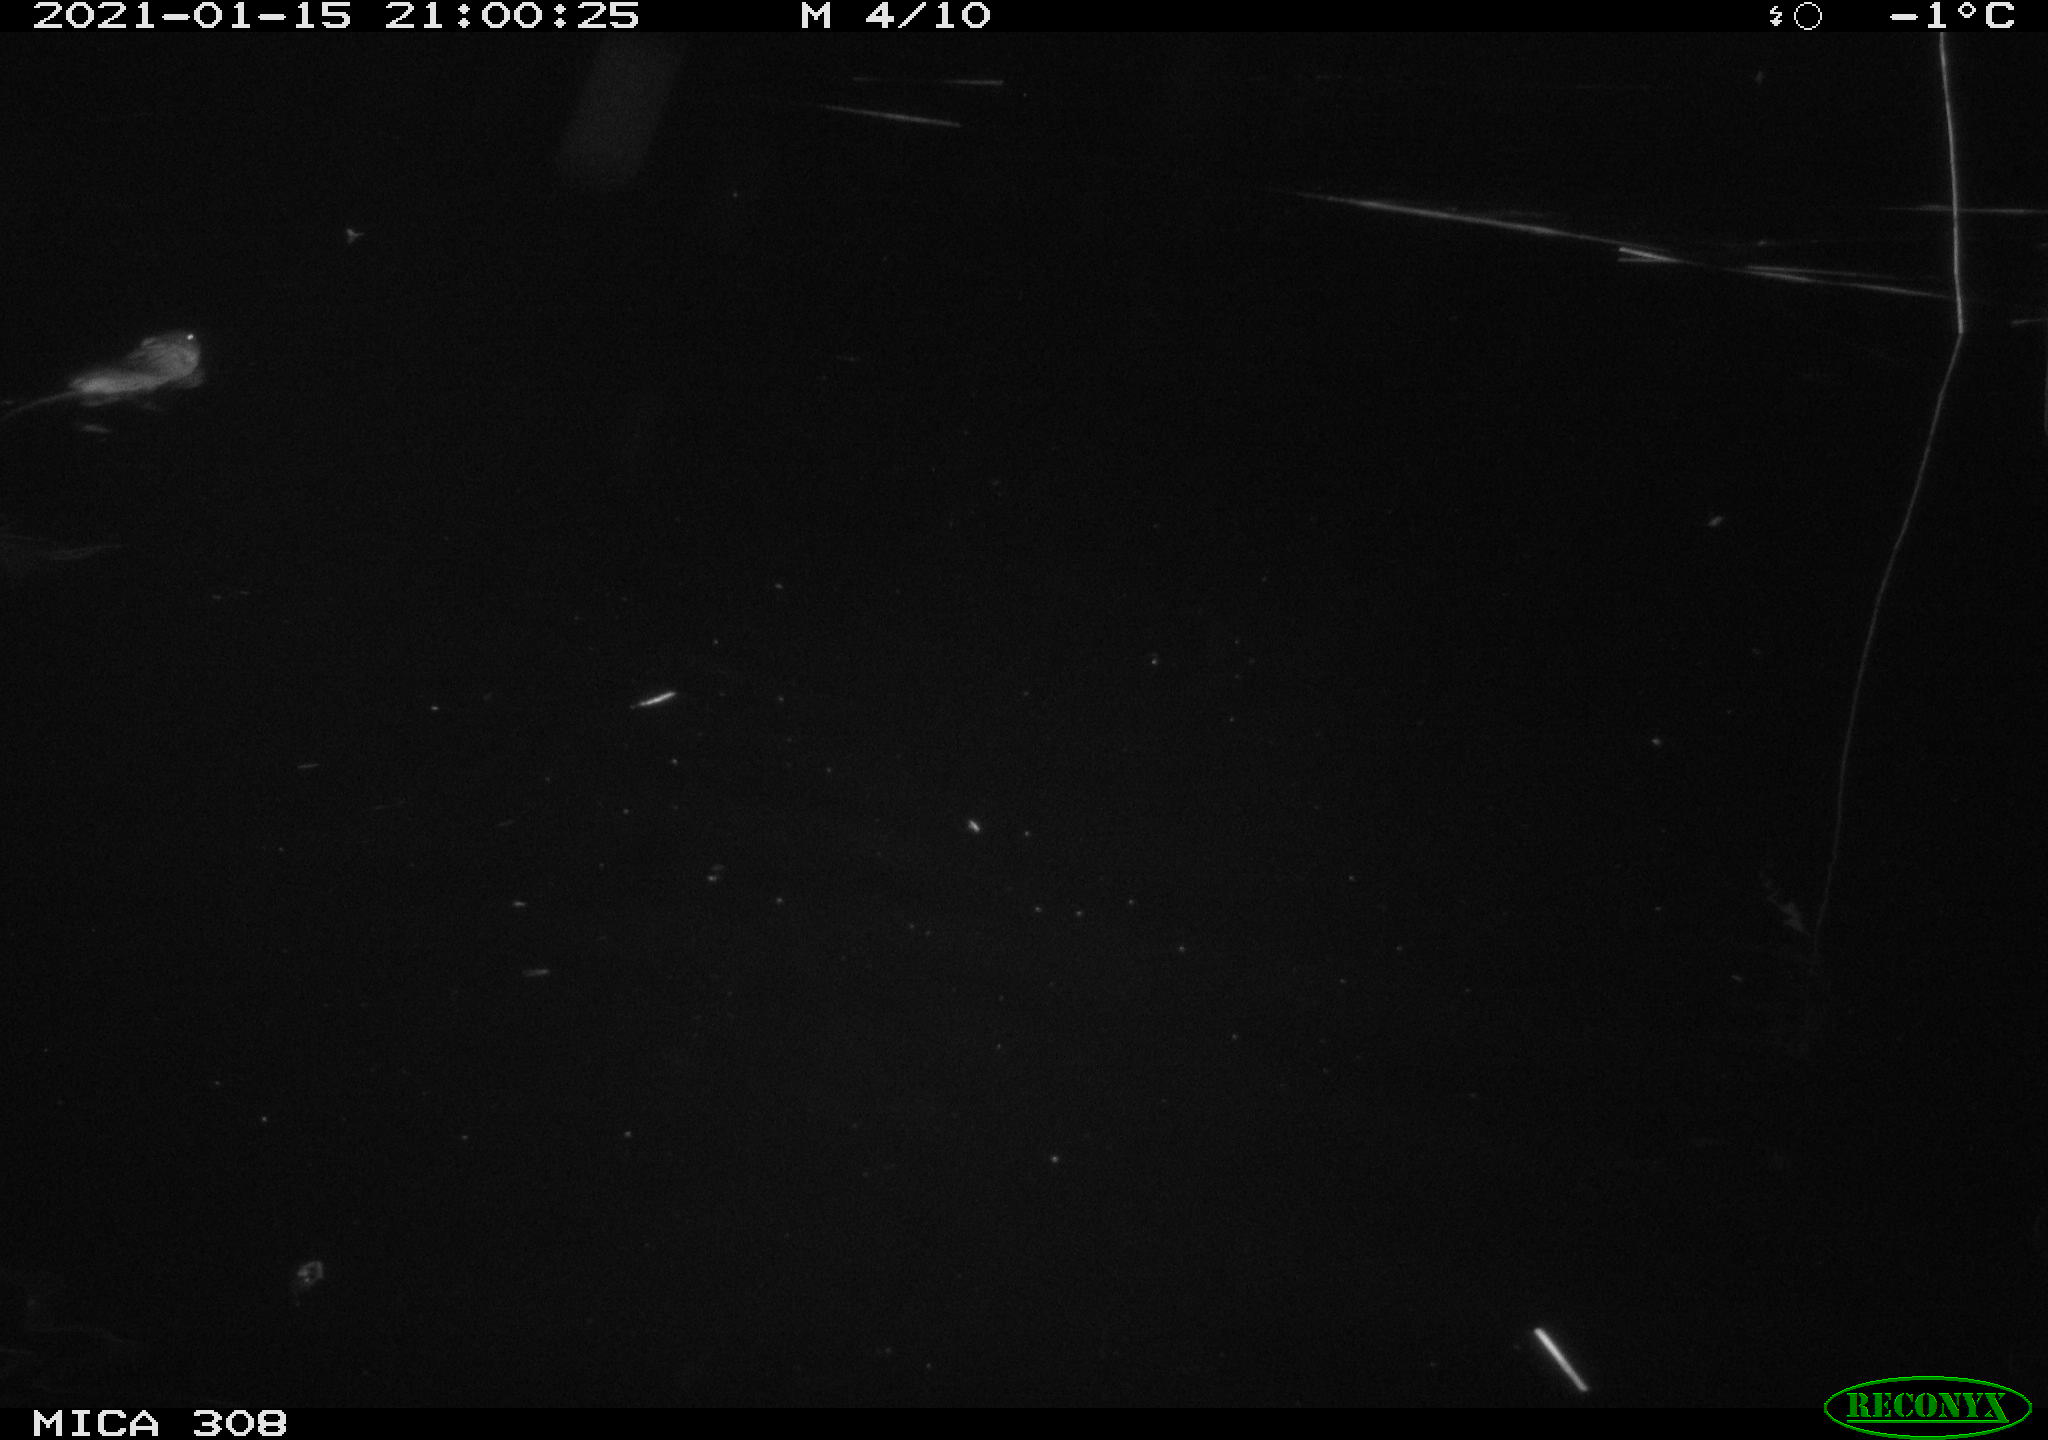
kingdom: Animalia
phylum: Chordata
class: Mammalia
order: Rodentia
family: Cricetidae
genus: Ondatra
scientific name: Ondatra zibethicus
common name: Muskrat
